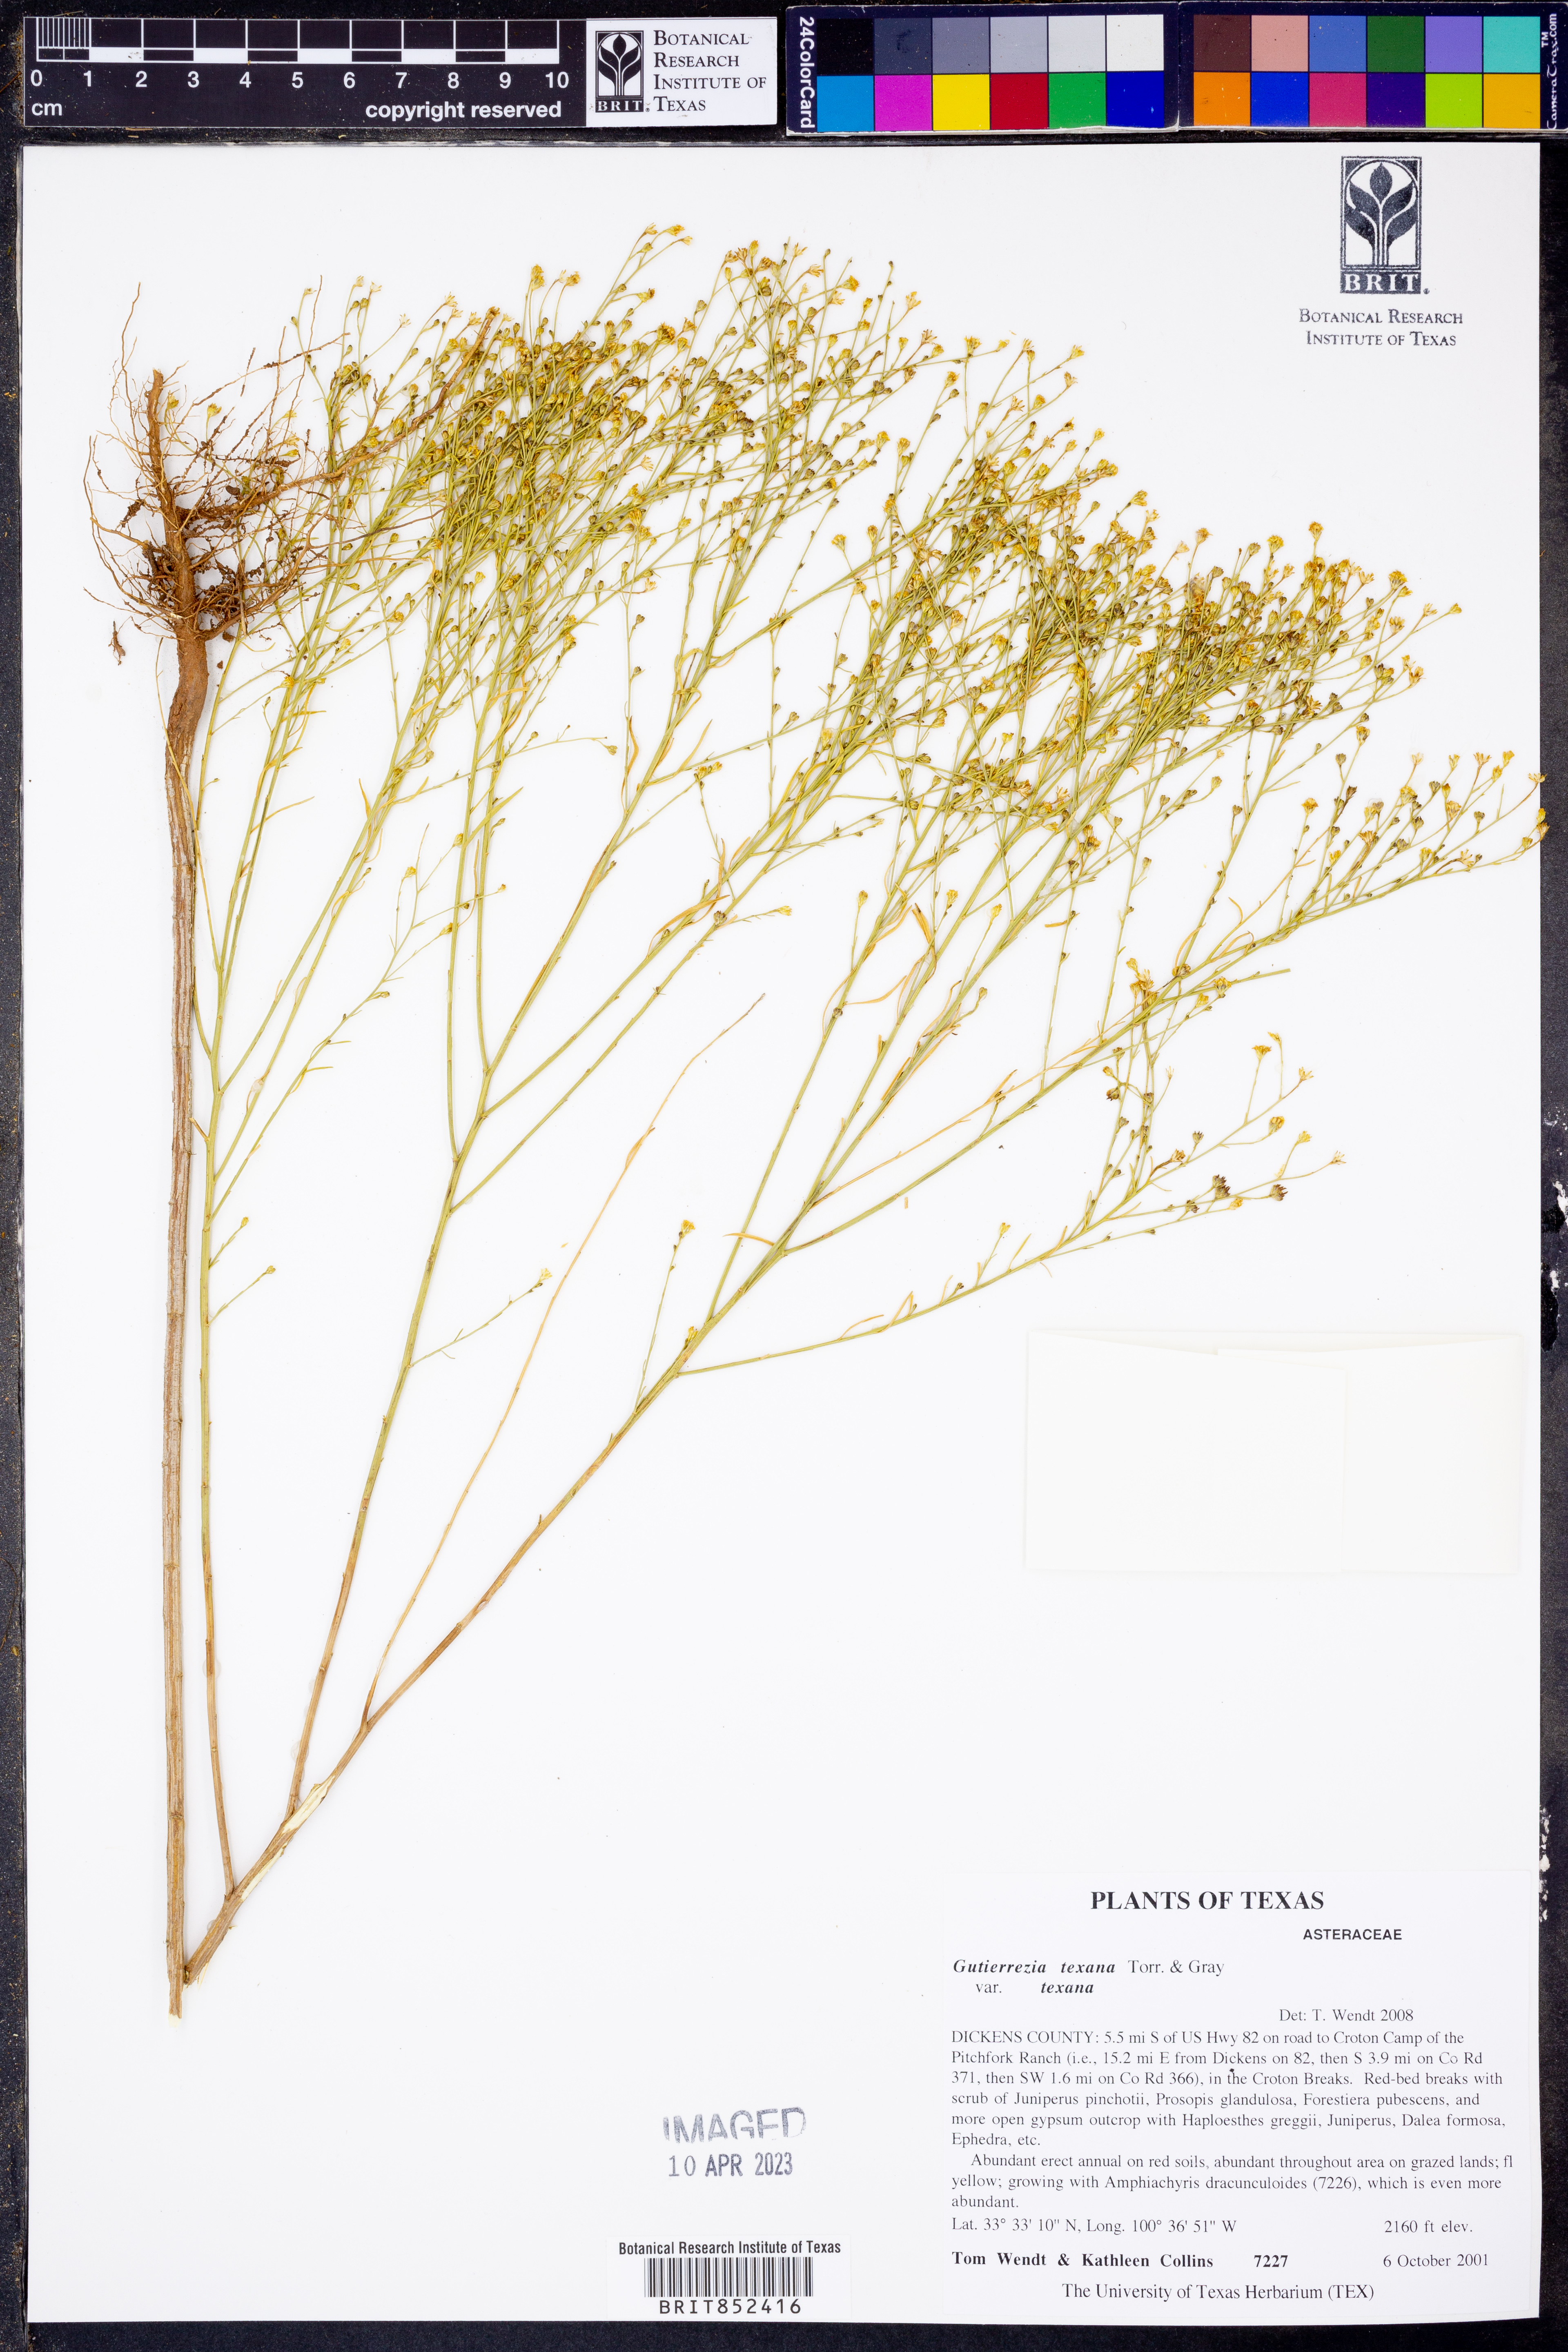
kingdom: Plantae
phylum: Tracheophyta
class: Magnoliopsida
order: Asterales
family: Asteraceae
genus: Gutierrezia
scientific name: Gutierrezia texana
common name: Texas snakeweed
